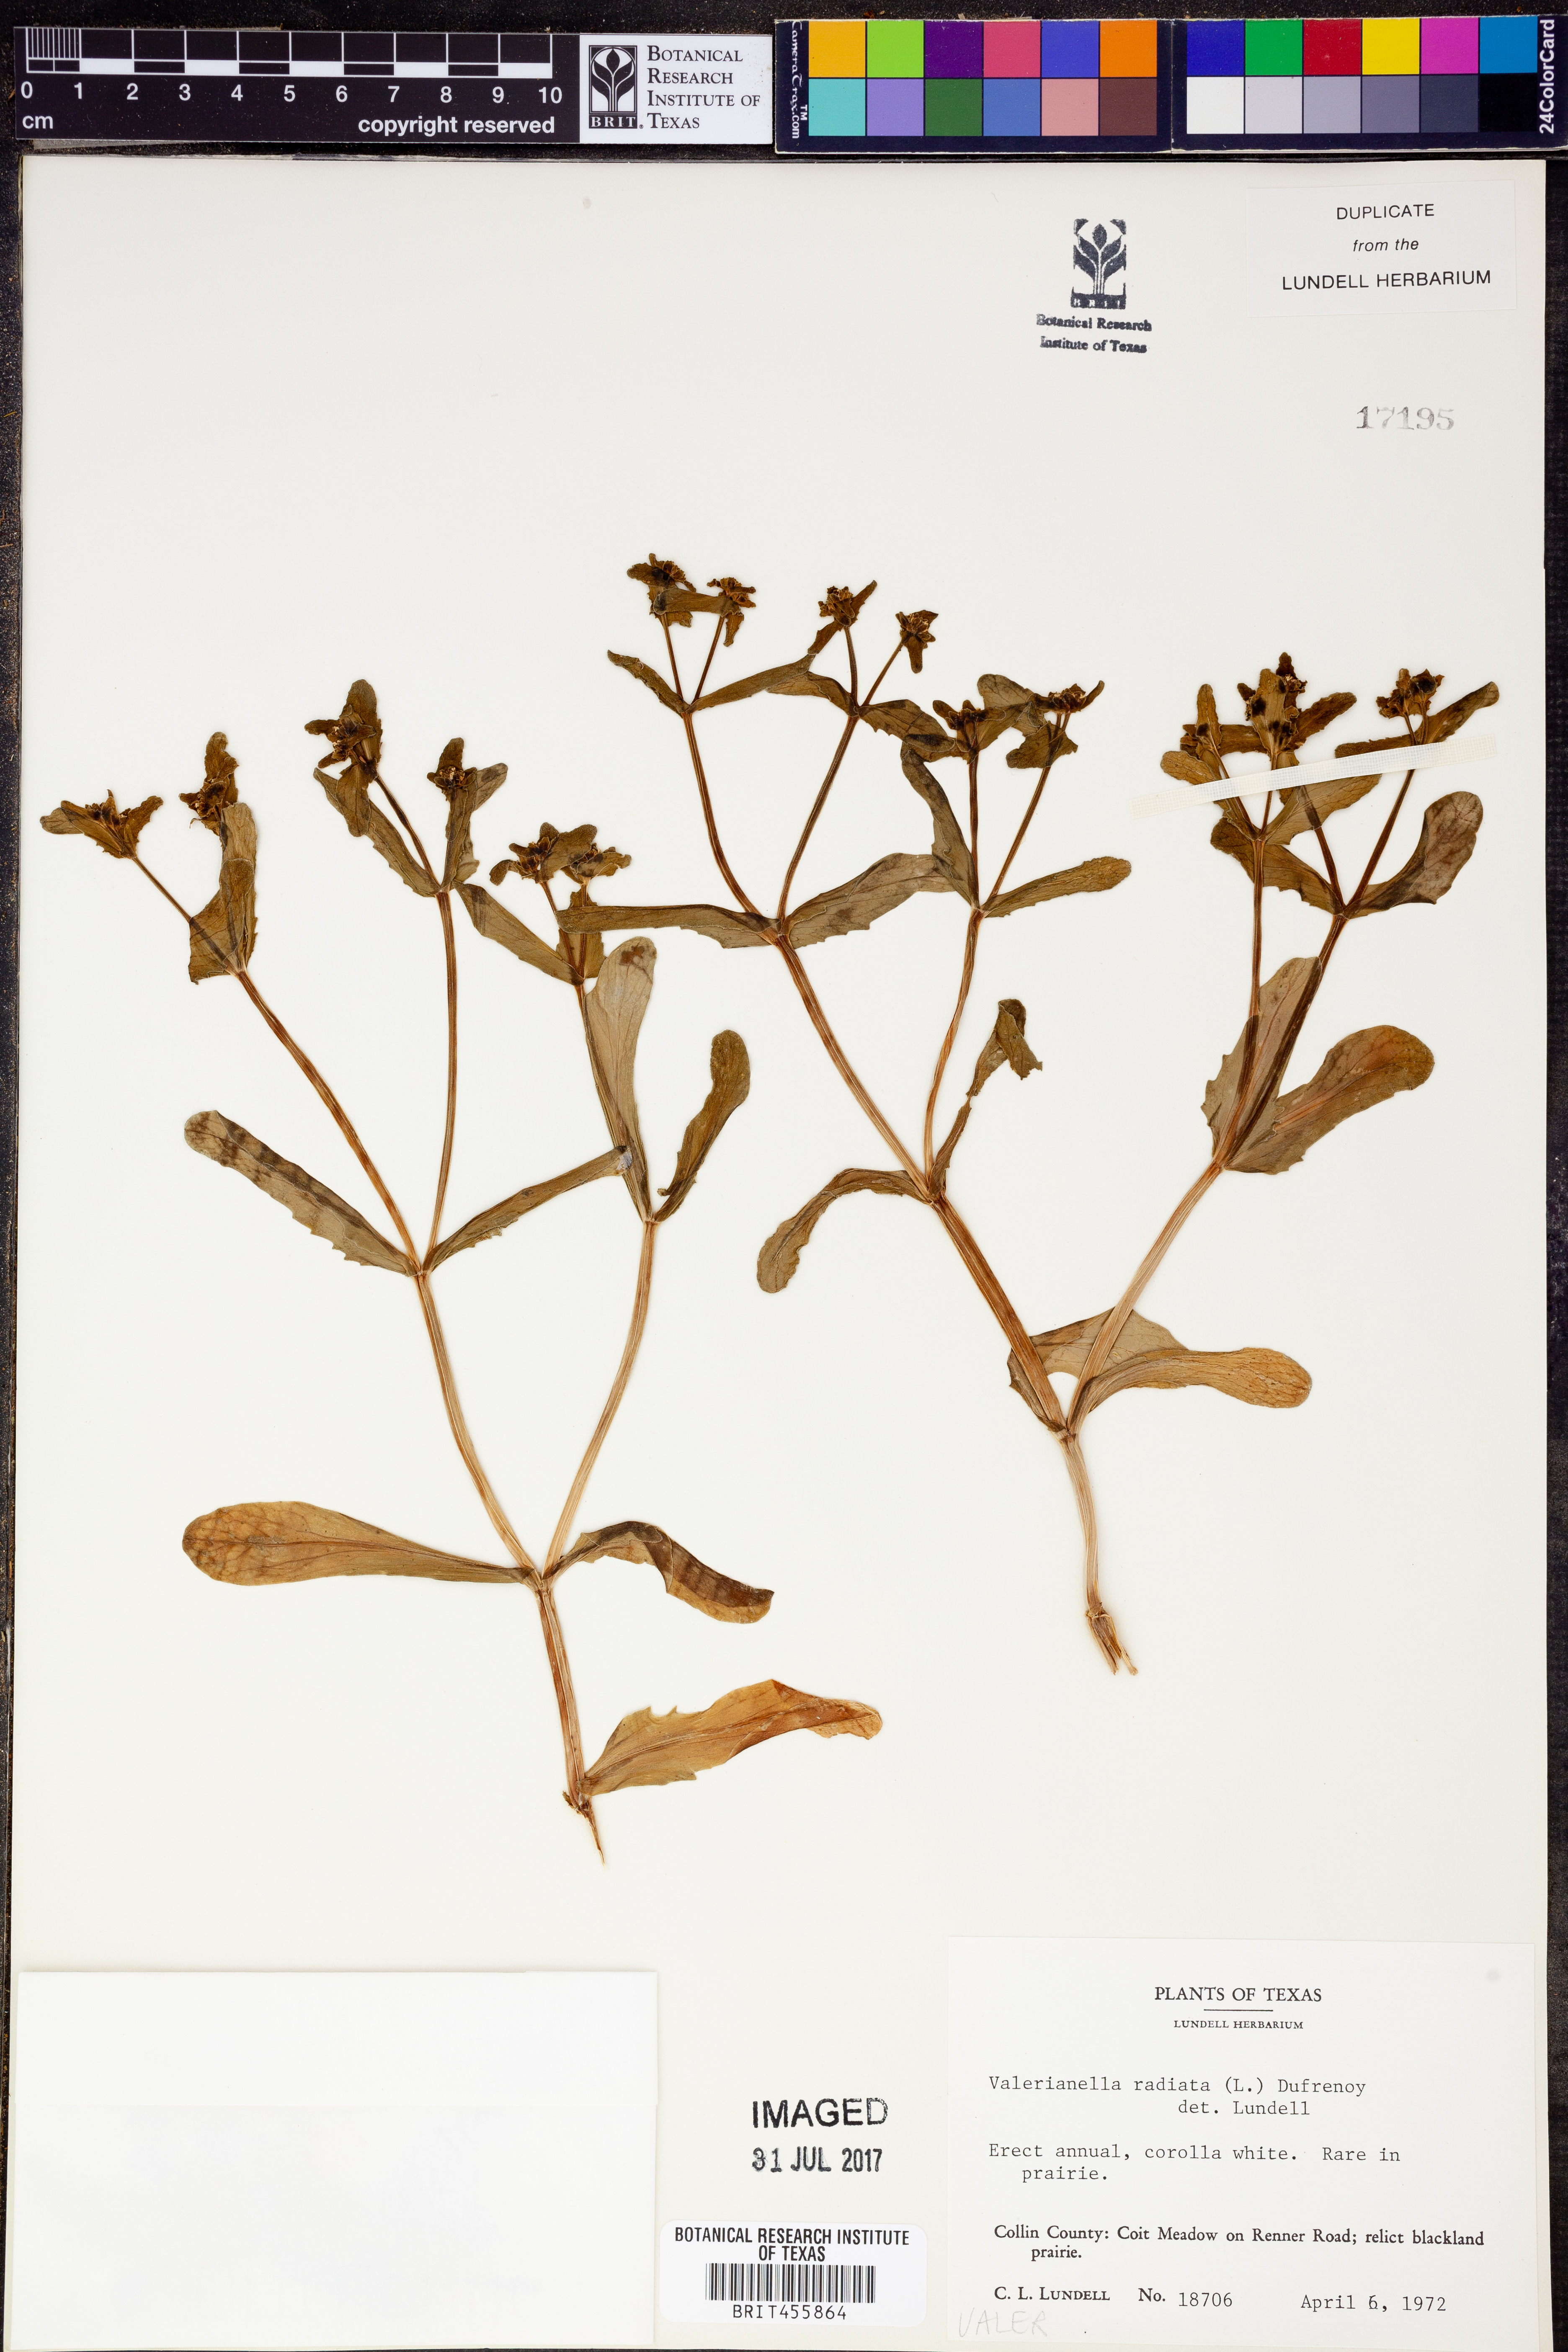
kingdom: Plantae
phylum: Tracheophyta
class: Magnoliopsida
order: Dipsacales
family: Caprifoliaceae
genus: Valerianella
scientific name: Valerianella radiata
